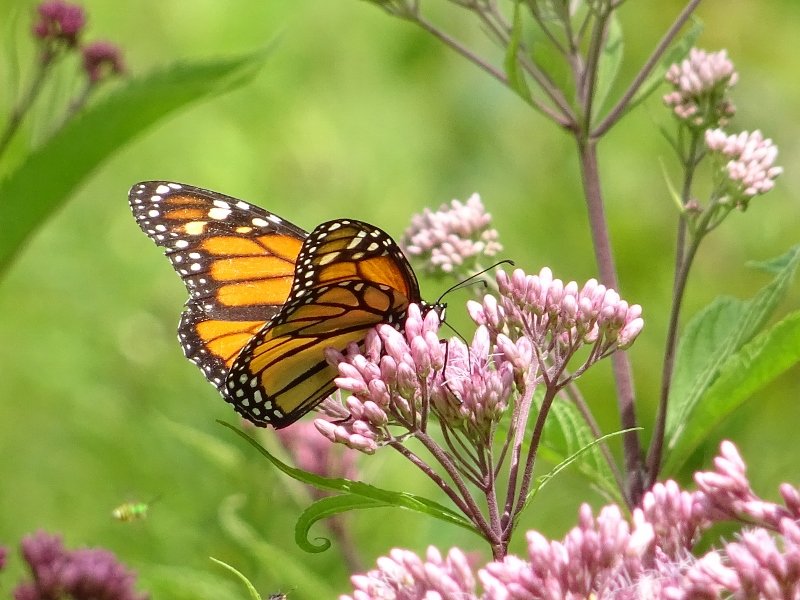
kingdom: Animalia
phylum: Arthropoda
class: Insecta
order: Lepidoptera
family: Nymphalidae
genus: Danaus
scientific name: Danaus plexippus
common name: Monarch
